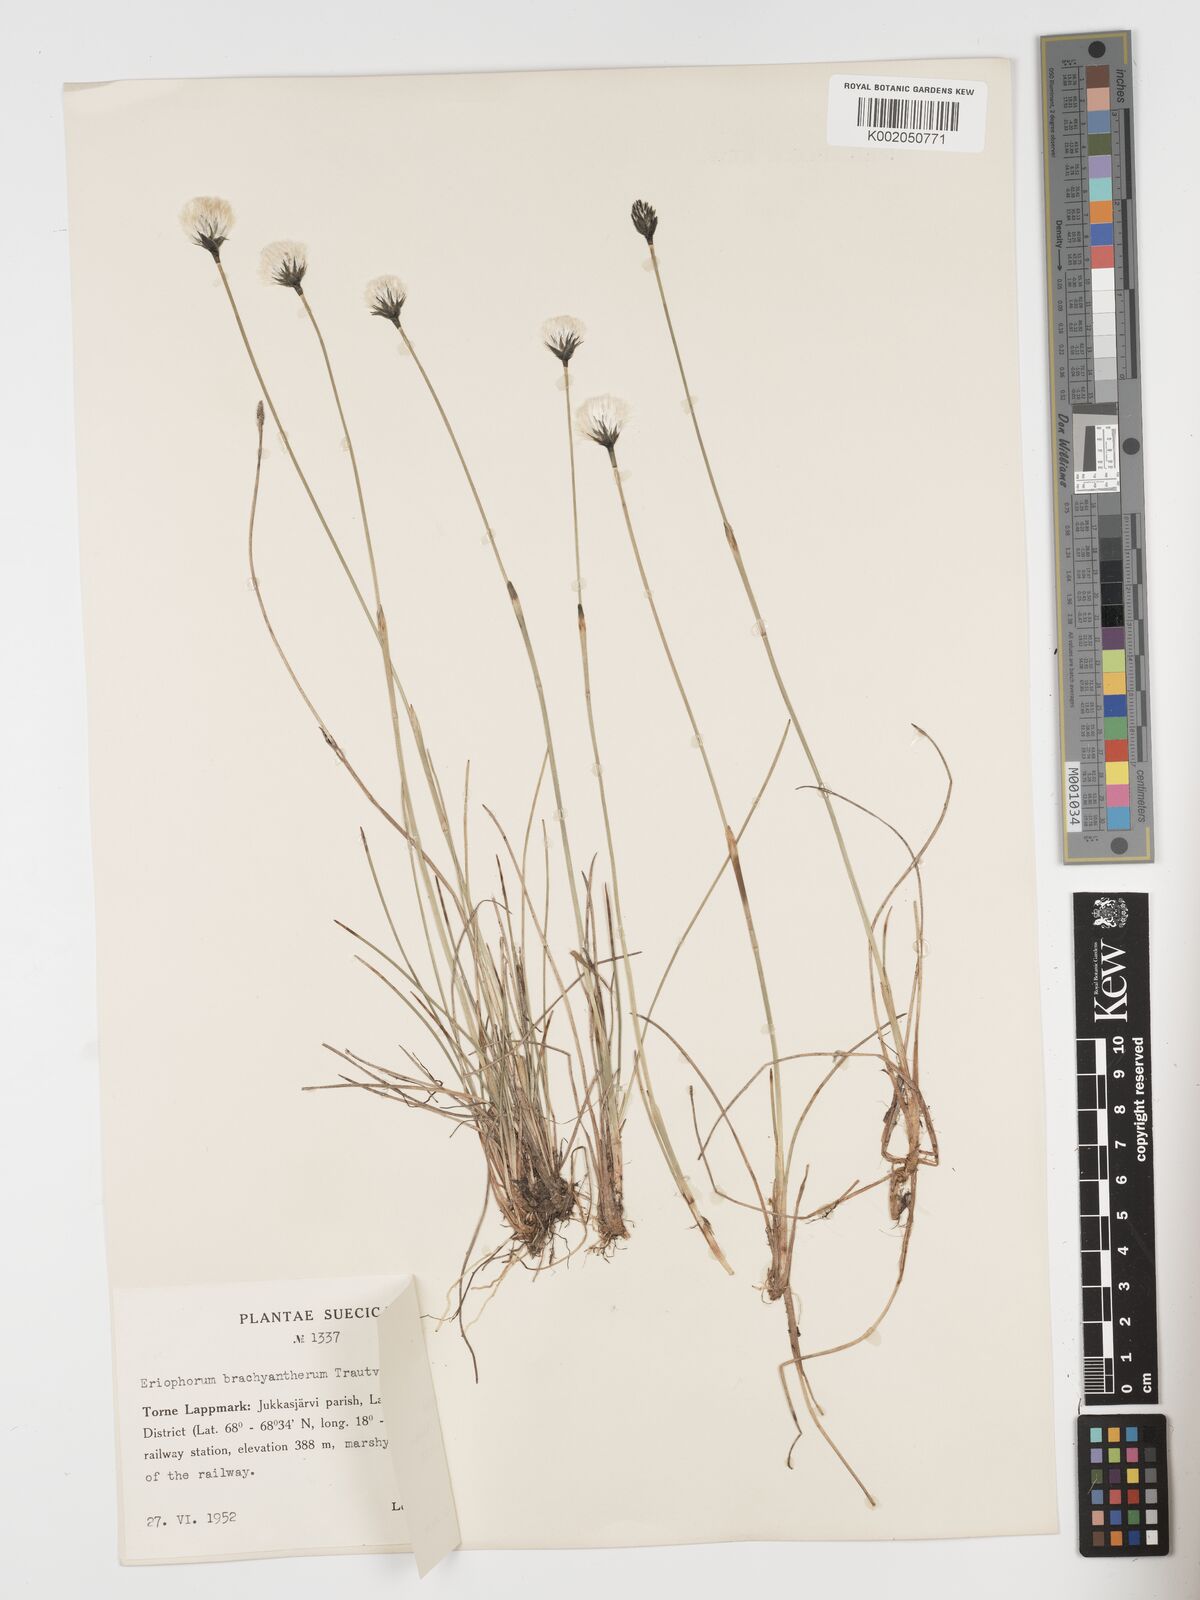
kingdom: Plantae
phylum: Tracheophyta
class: Liliopsida
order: Poales
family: Cyperaceae
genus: Eriophorum
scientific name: Eriophorum brachyantherum
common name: Closed-sheathed cottongrass
